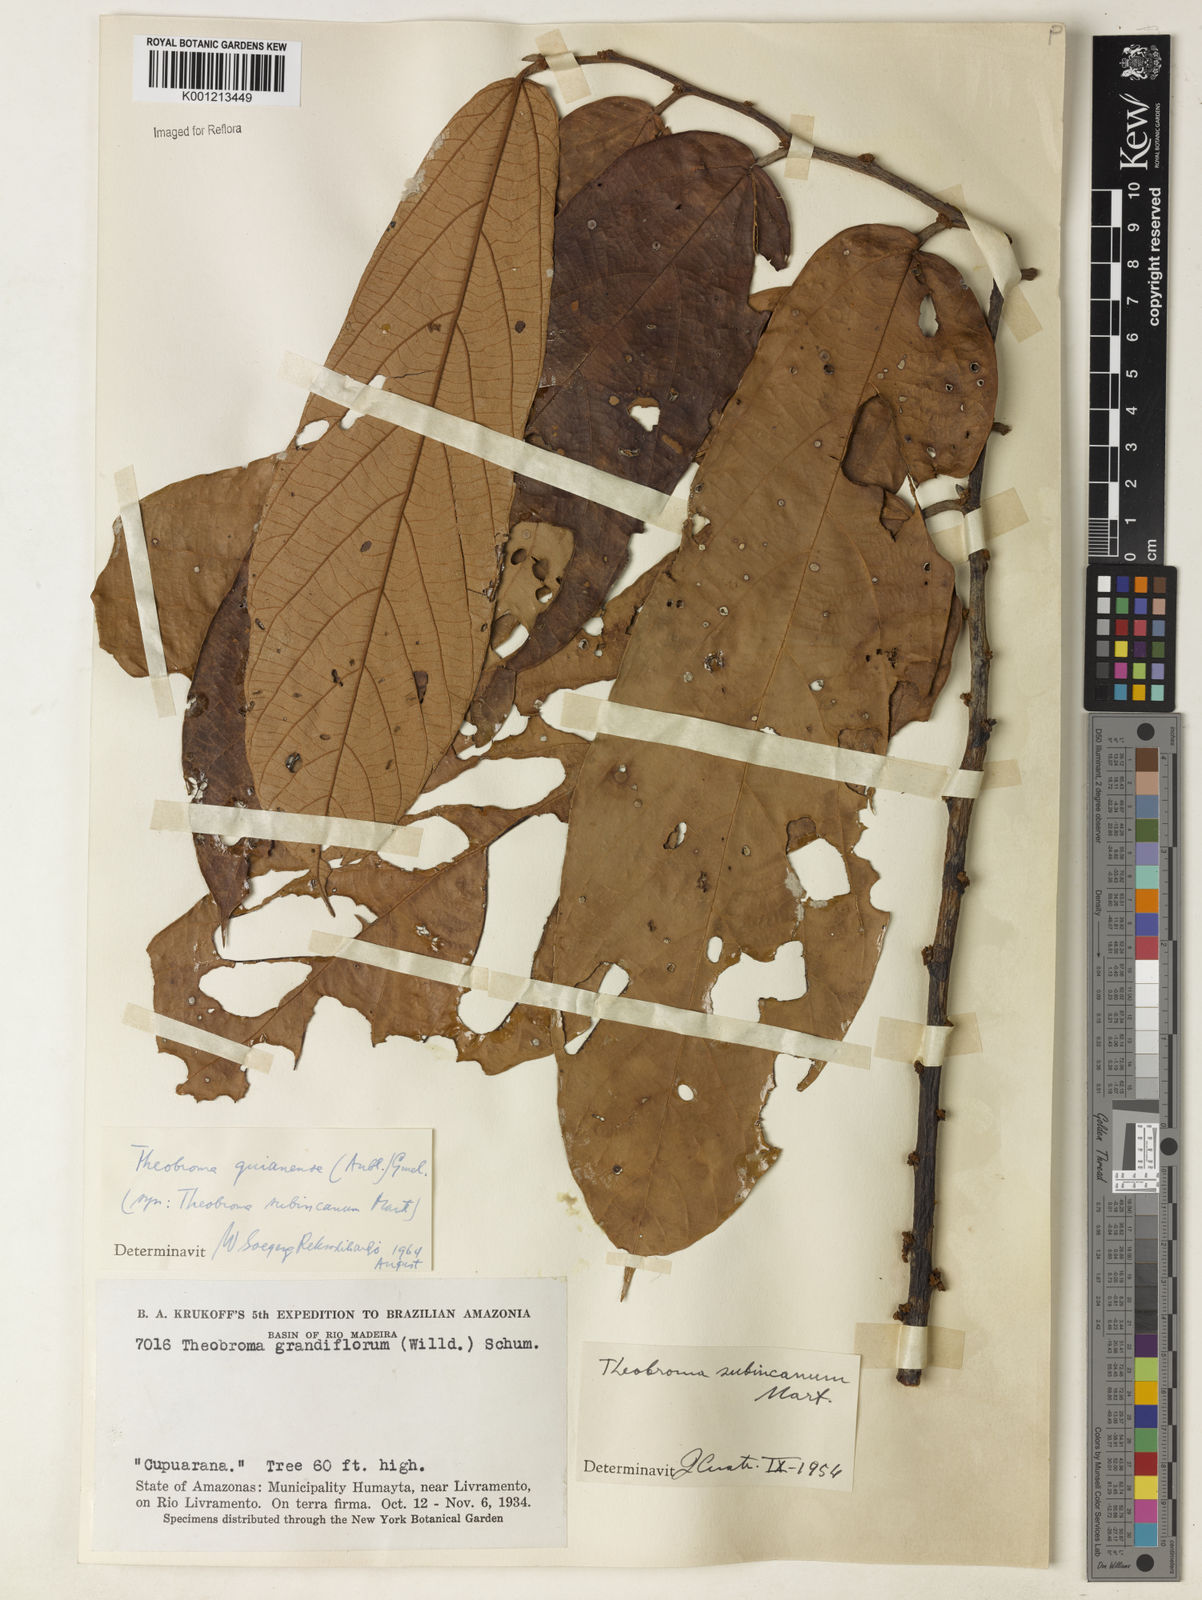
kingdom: Plantae
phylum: Tracheophyta
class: Magnoliopsida
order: Malvales
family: Malvaceae
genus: Theobroma
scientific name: Theobroma subincanum
